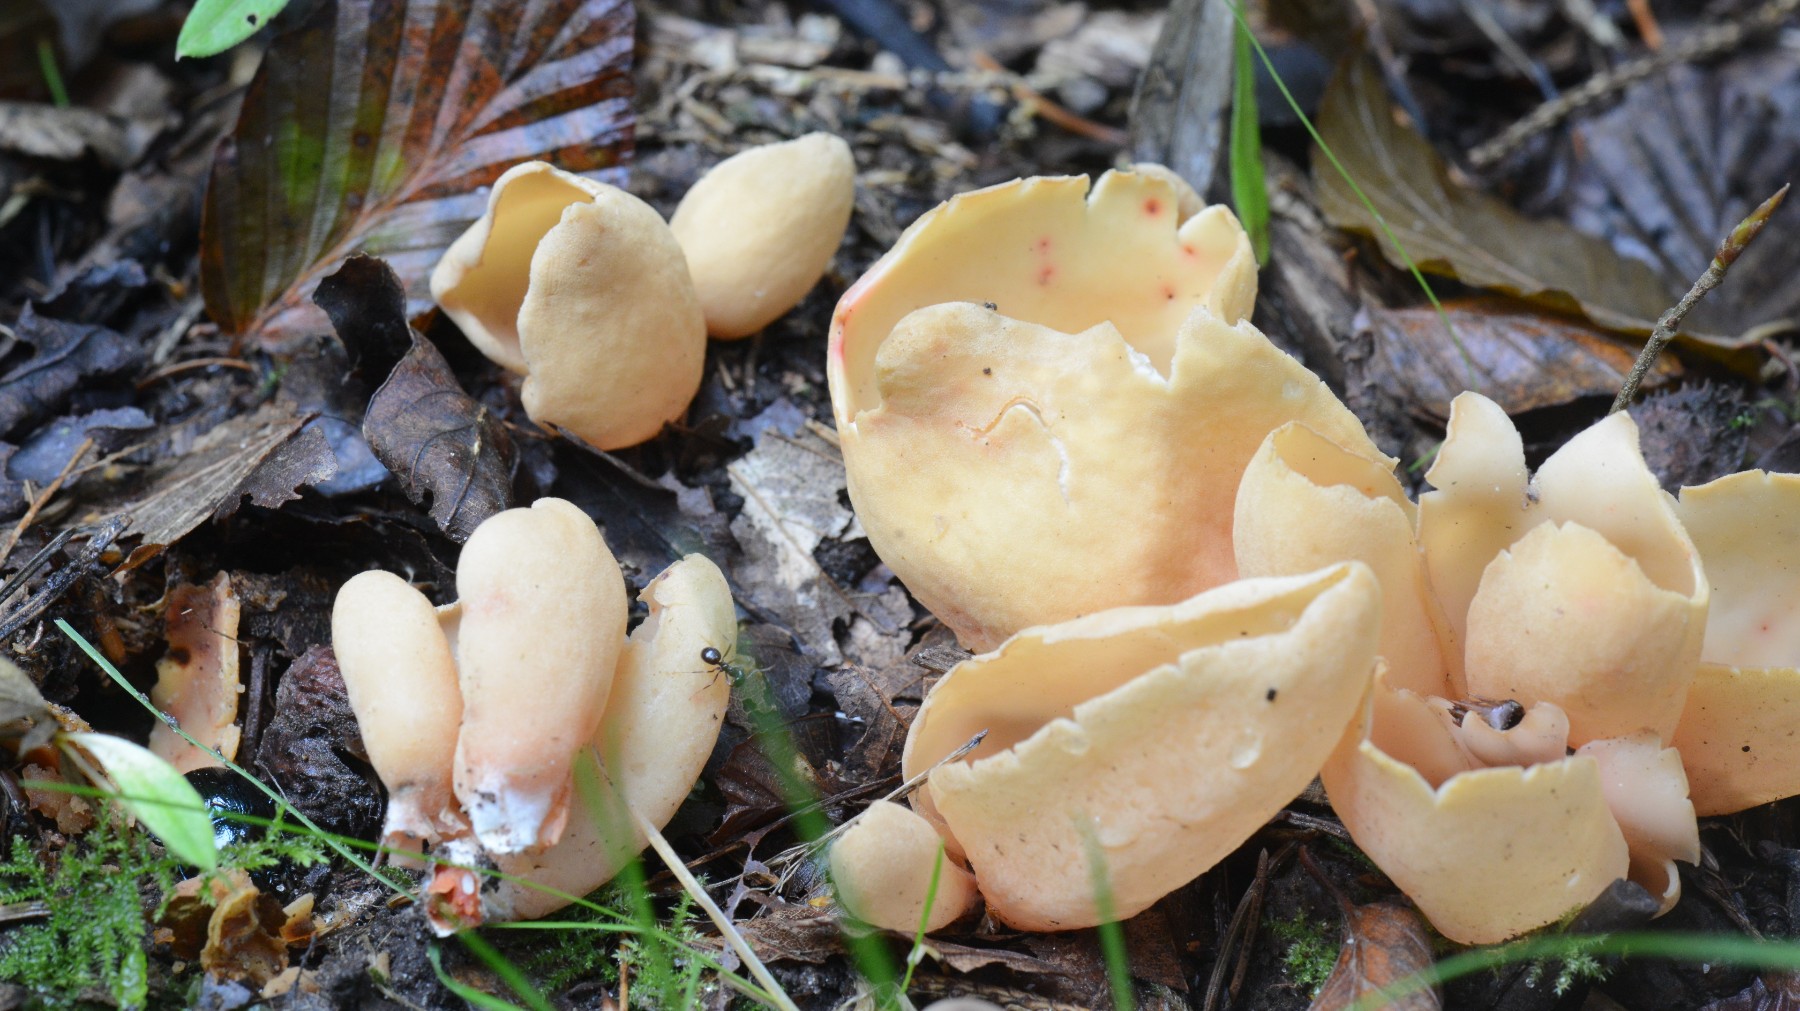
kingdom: Fungi
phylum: Ascomycota
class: Pezizomycetes
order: Pezizales
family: Otideaceae
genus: Otidea
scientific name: Otidea onotica
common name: æsel-ørebæger
